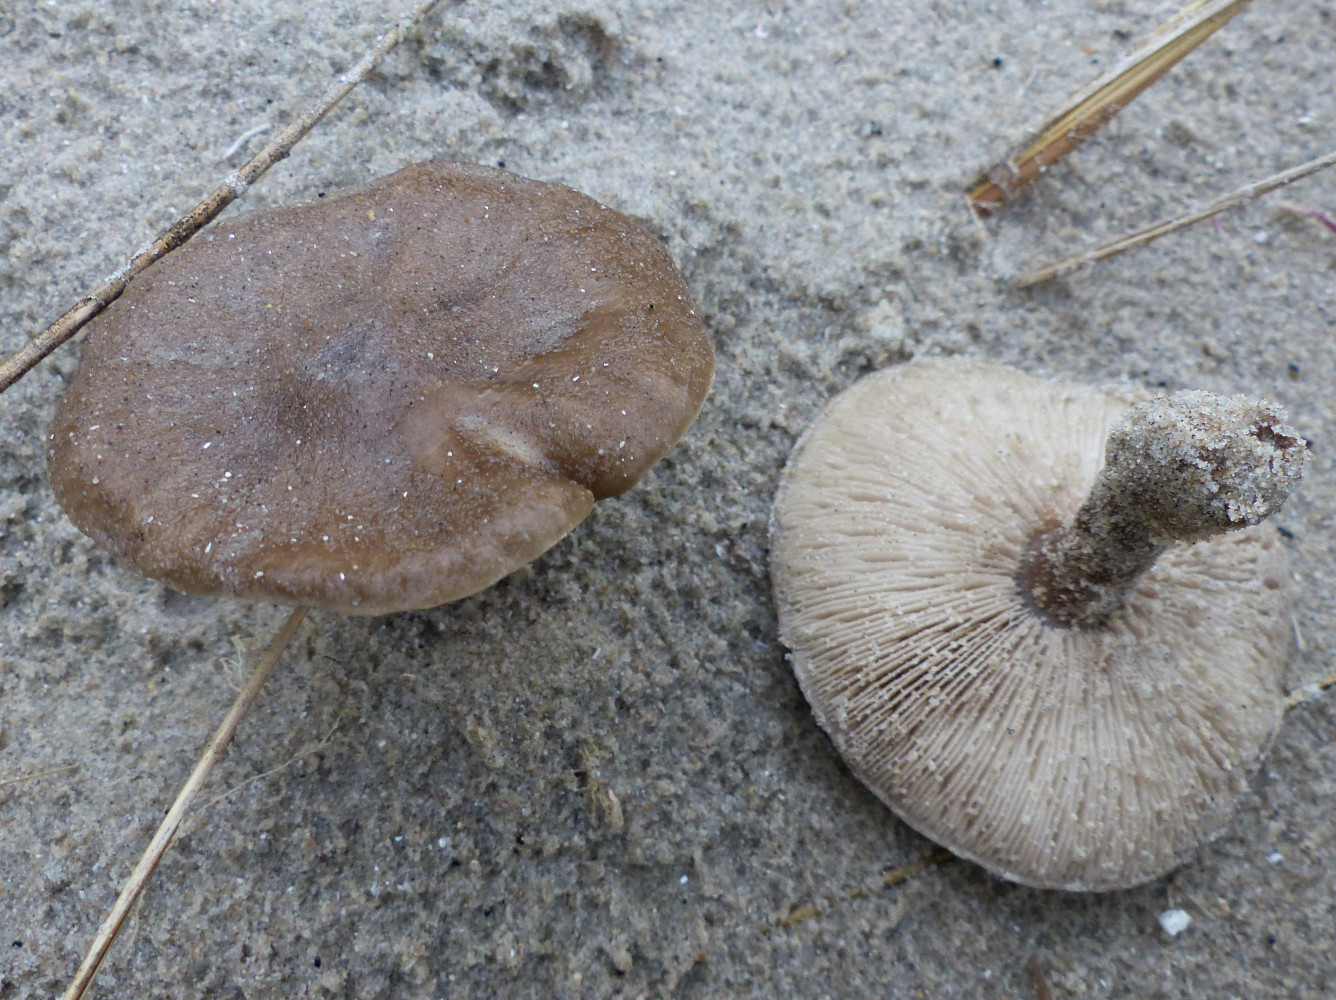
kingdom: Fungi
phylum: Basidiomycota
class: Agaricomycetes
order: Agaricales
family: Tricholomataceae
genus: Melanoleuca
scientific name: Melanoleuca ammophila
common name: gråbladet munkehat
